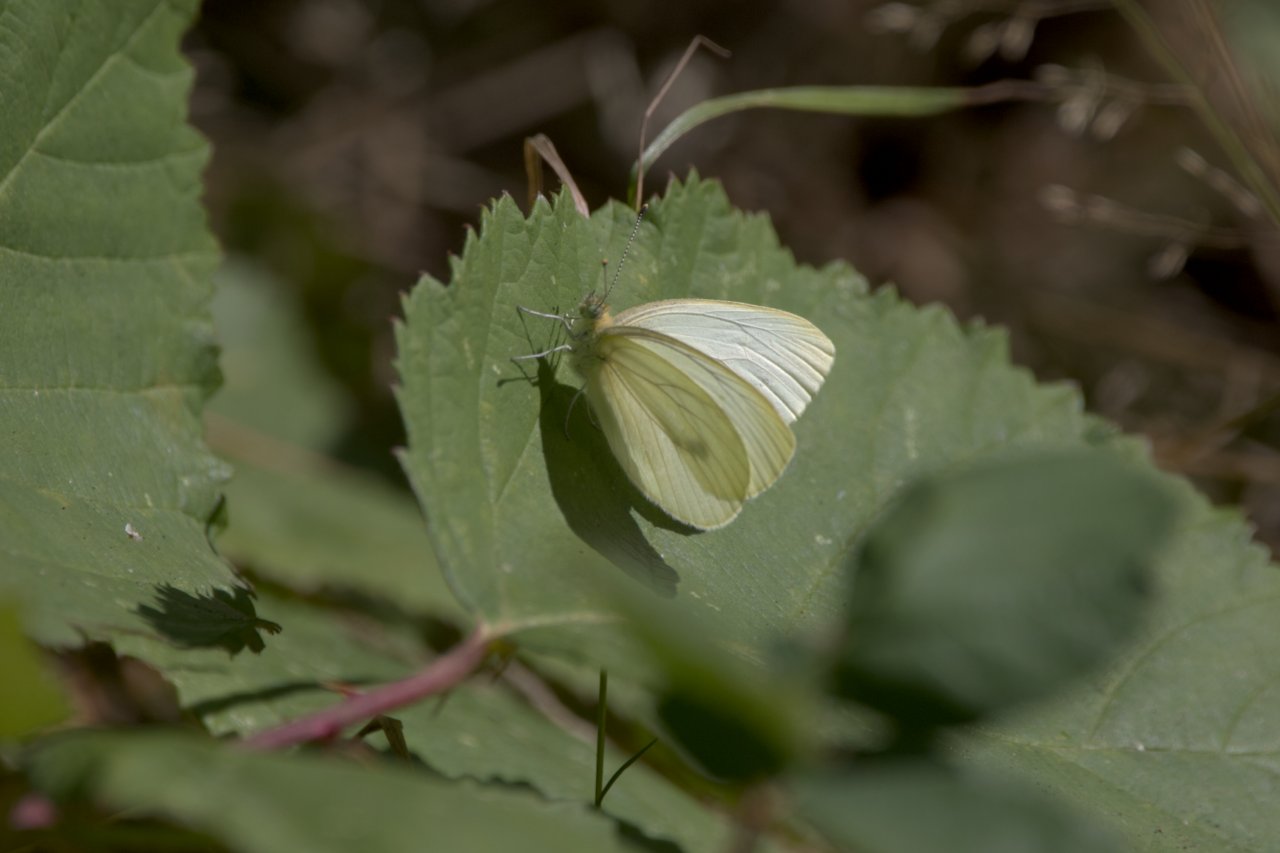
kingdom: Animalia
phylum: Arthropoda
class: Insecta
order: Lepidoptera
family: Pieridae
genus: Pieris
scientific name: Pieris marginalis
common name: Margined White
